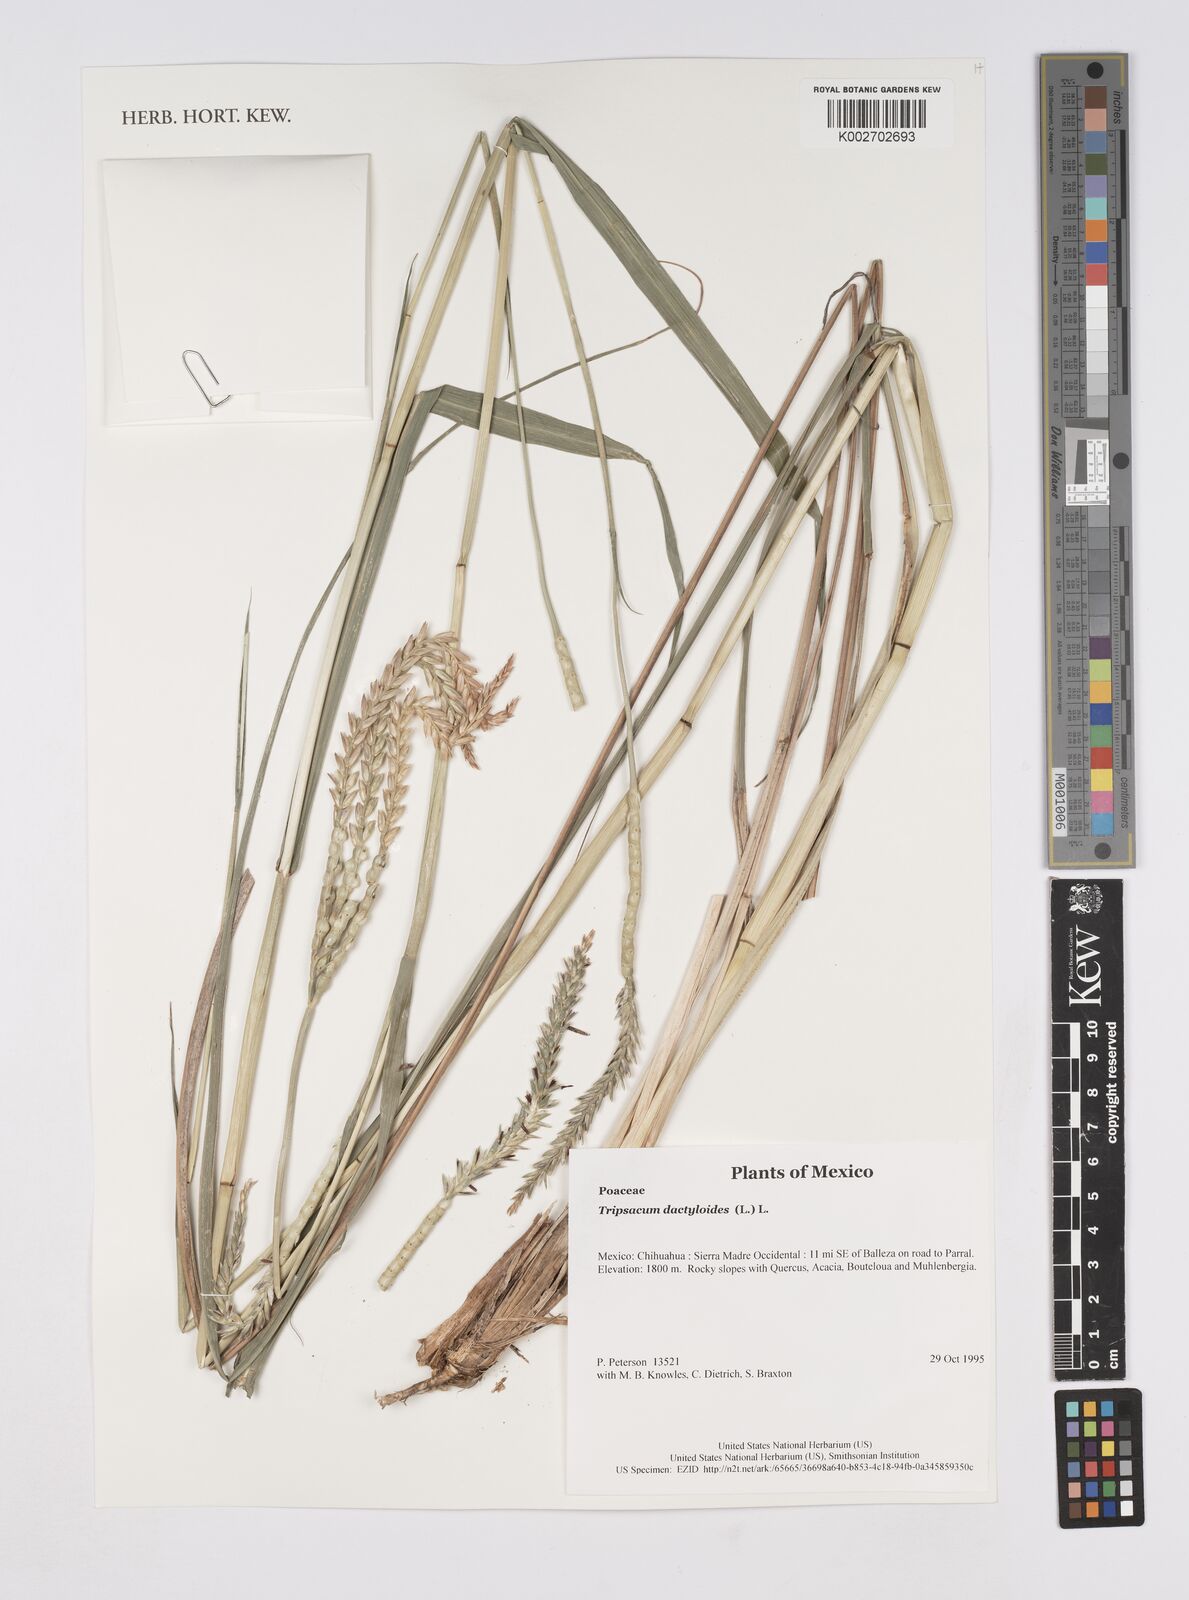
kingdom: Plantae
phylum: Tracheophyta
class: Liliopsida
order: Poales
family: Poaceae
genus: Tripsacum
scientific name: Tripsacum dactyloides
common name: Buffalo-grass
